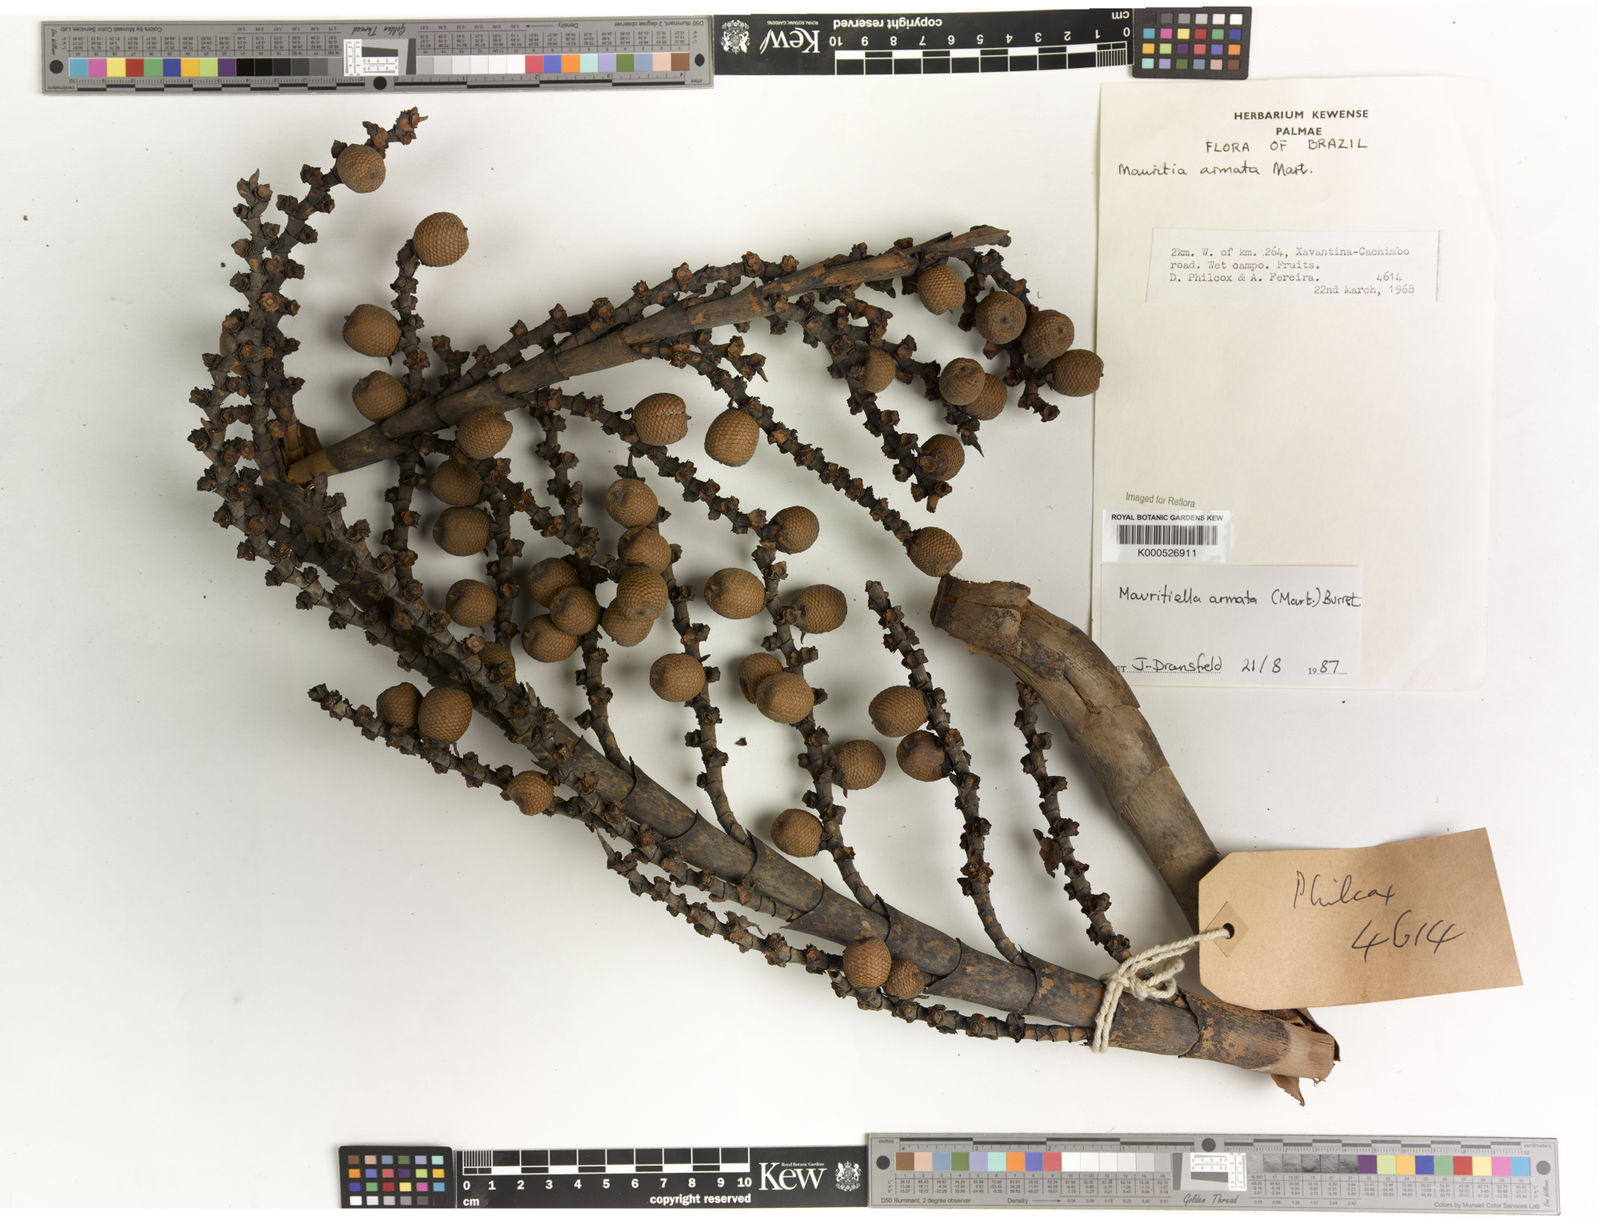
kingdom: Plantae
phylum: Tracheophyta
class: Liliopsida
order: Arecales
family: Arecaceae
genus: Mauritiella
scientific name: Mauritiella armata
